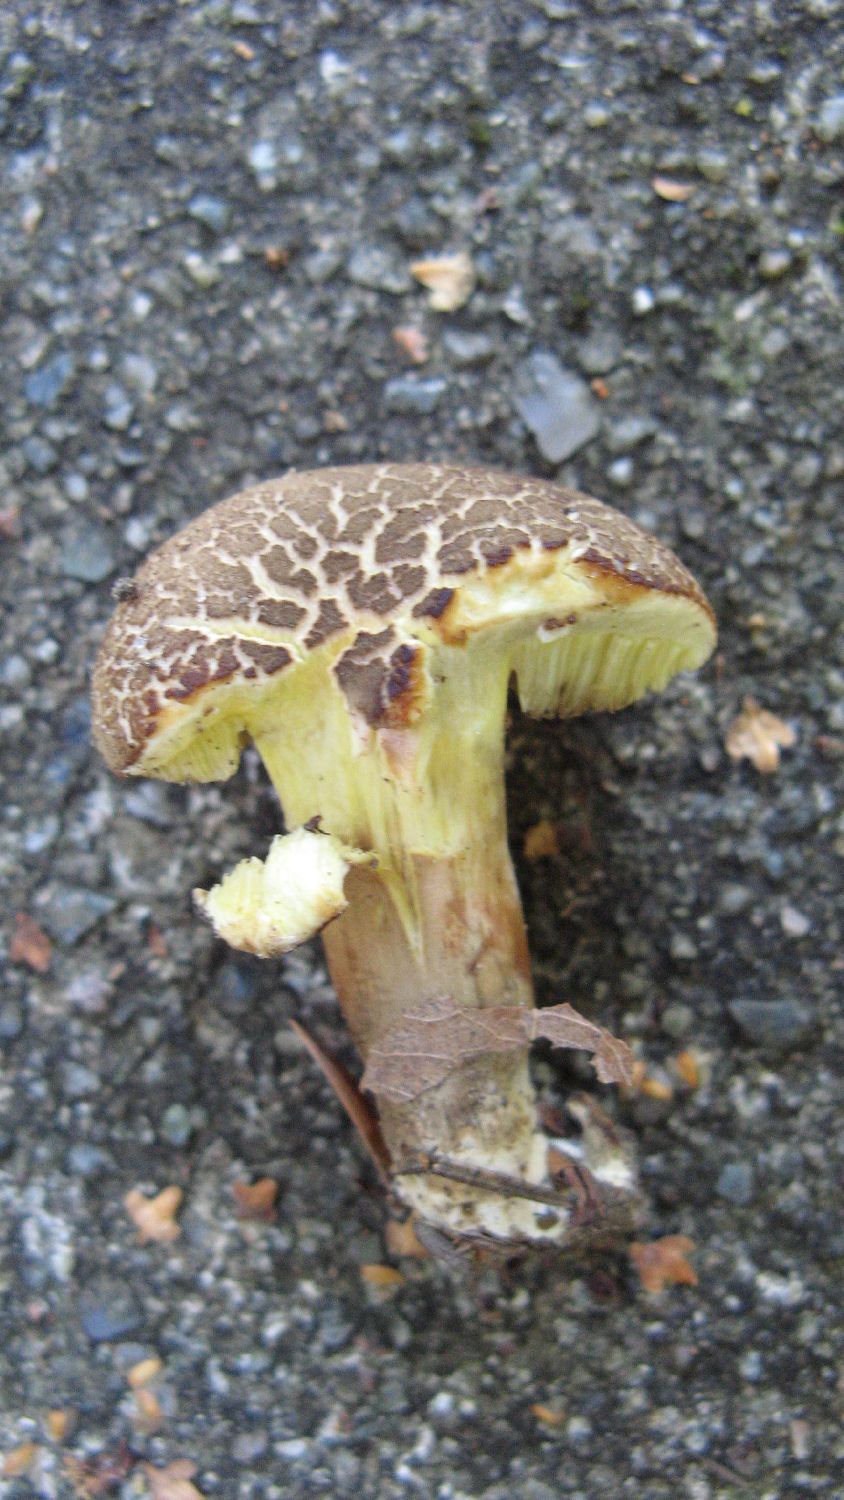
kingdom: Fungi
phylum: Basidiomycota
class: Agaricomycetes
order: Boletales
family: Boletaceae
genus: Xerocomellus
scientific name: Xerocomellus porosporus
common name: hvidsprukken rørhat
